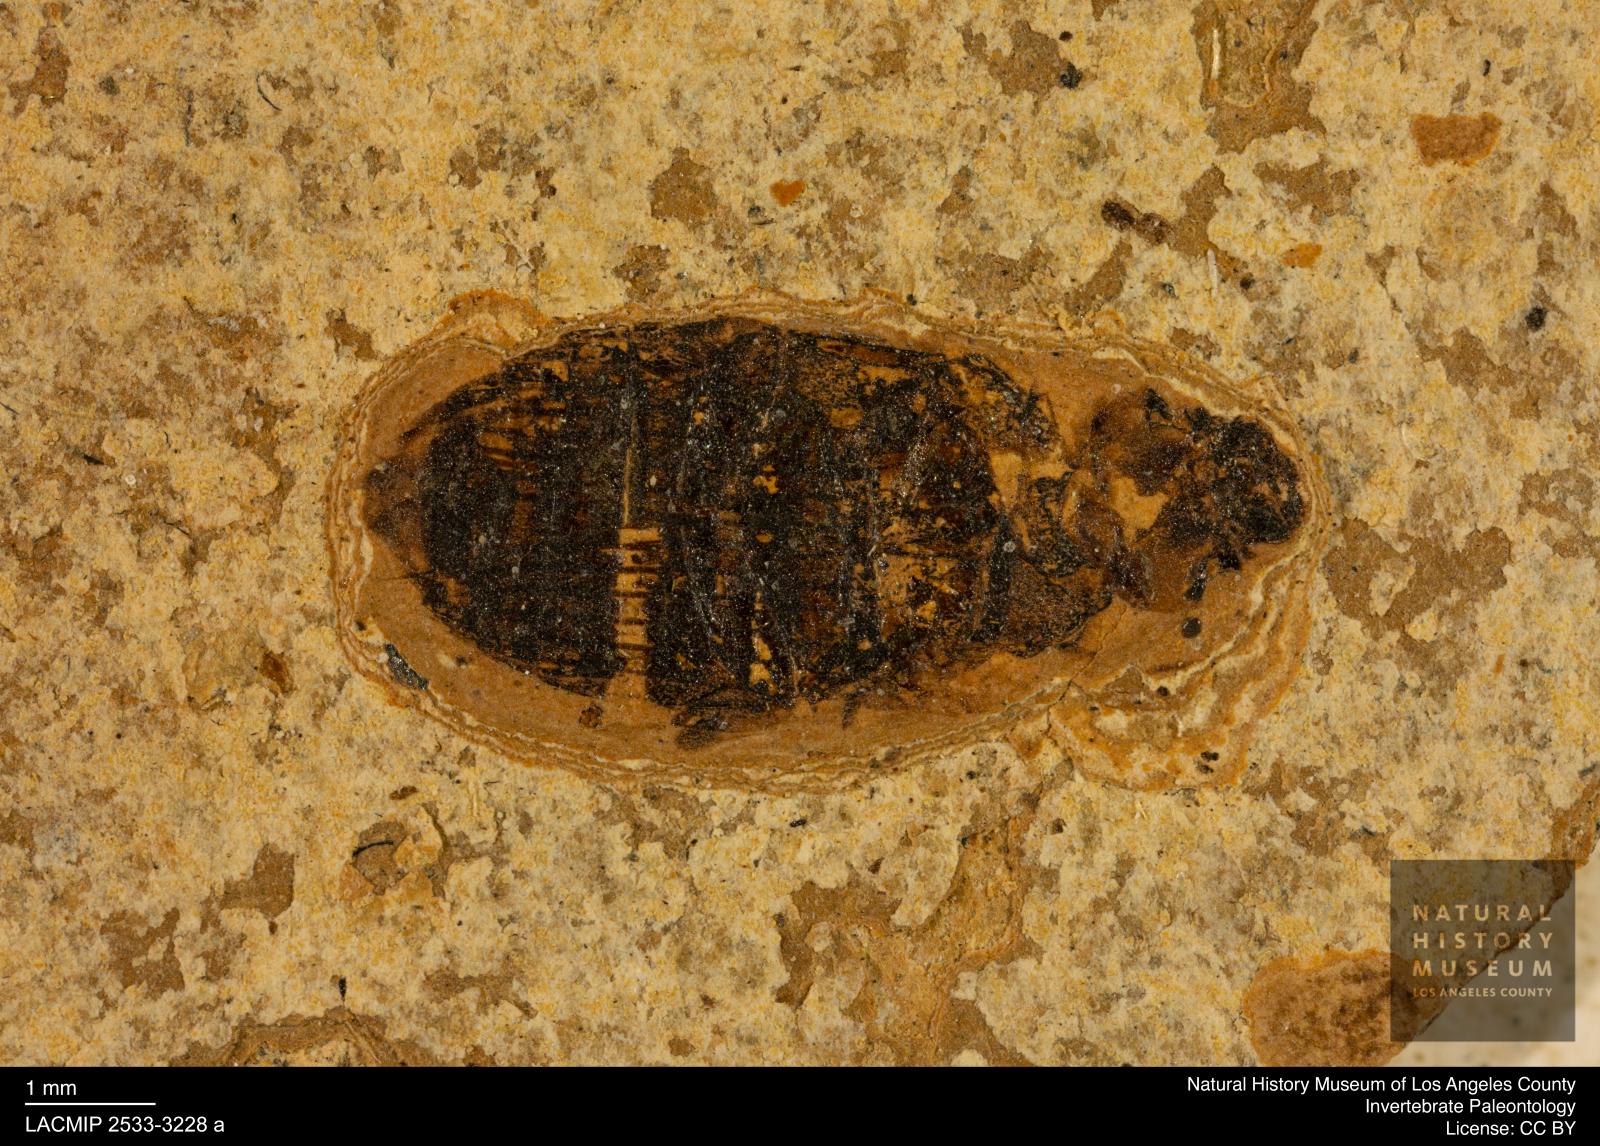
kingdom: Animalia
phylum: Arthropoda
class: Insecta
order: Coleoptera
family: Hydrophilidae
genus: Berosus
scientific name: Berosus
